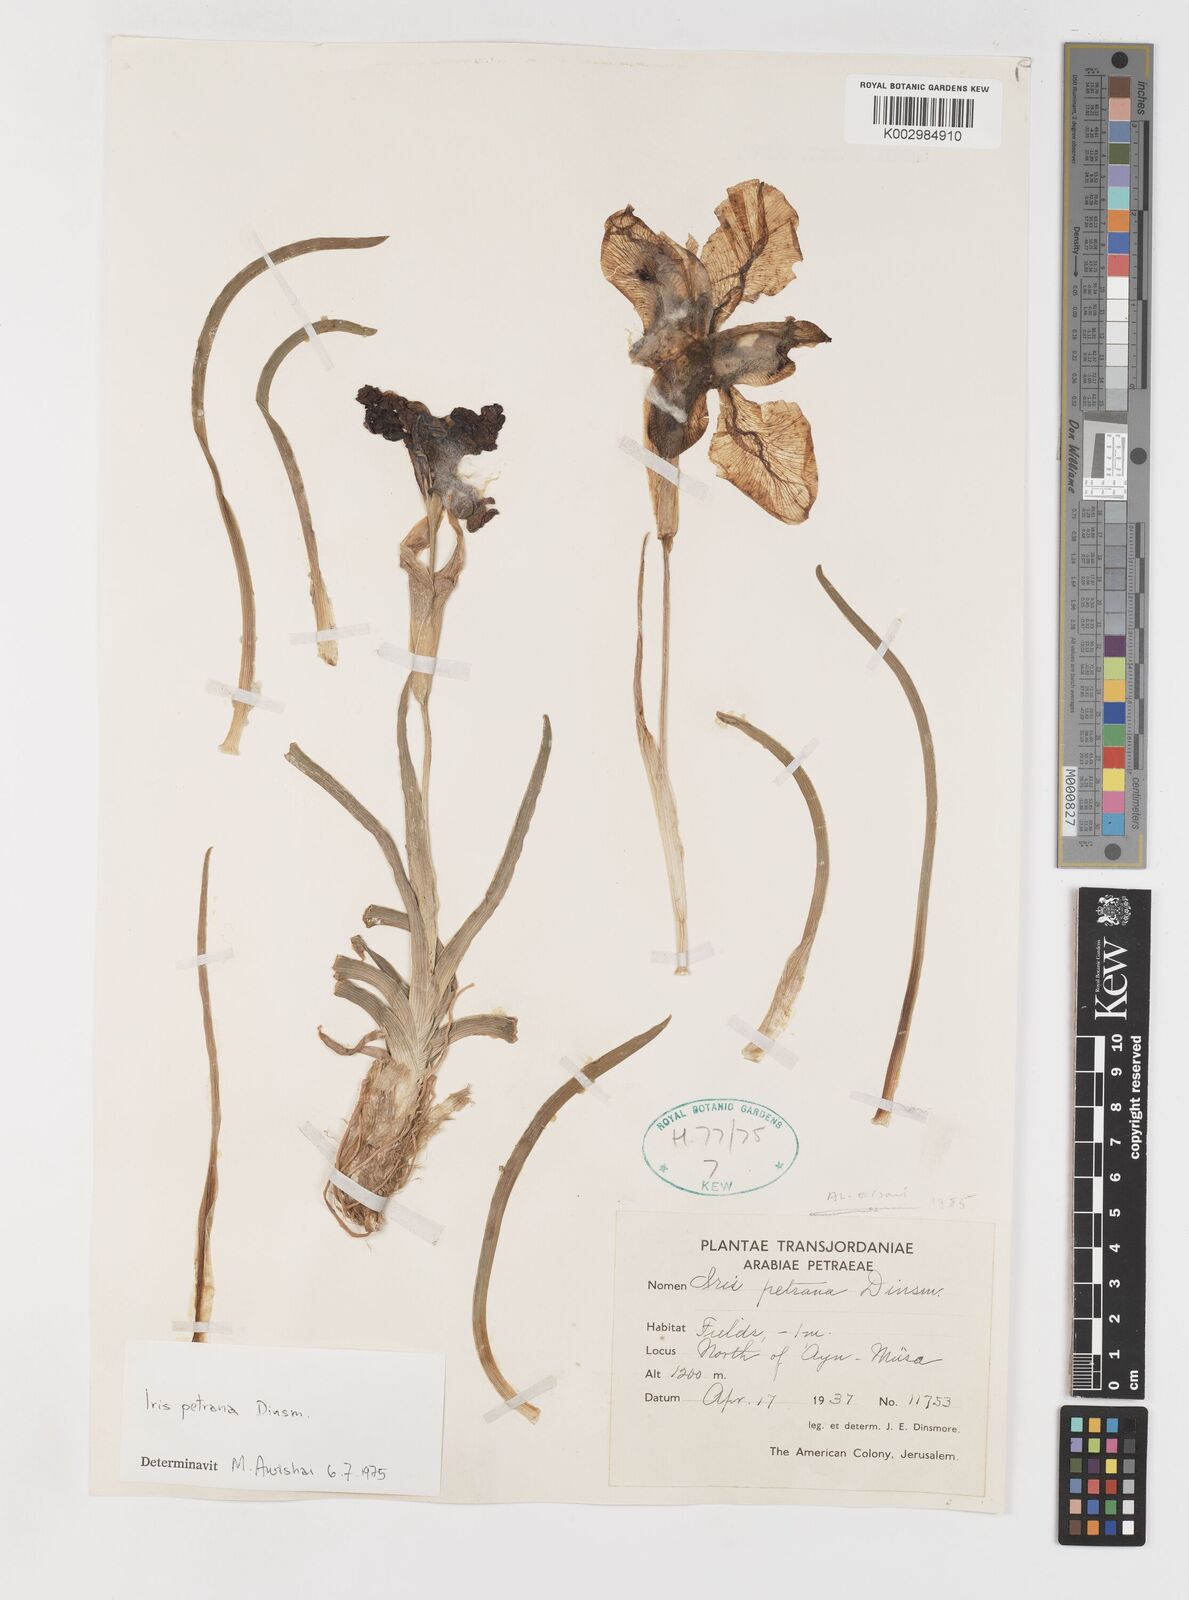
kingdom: Plantae
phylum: Tracheophyta
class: Liliopsida
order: Asparagales
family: Iridaceae
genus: Iris
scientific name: Iris petrana
